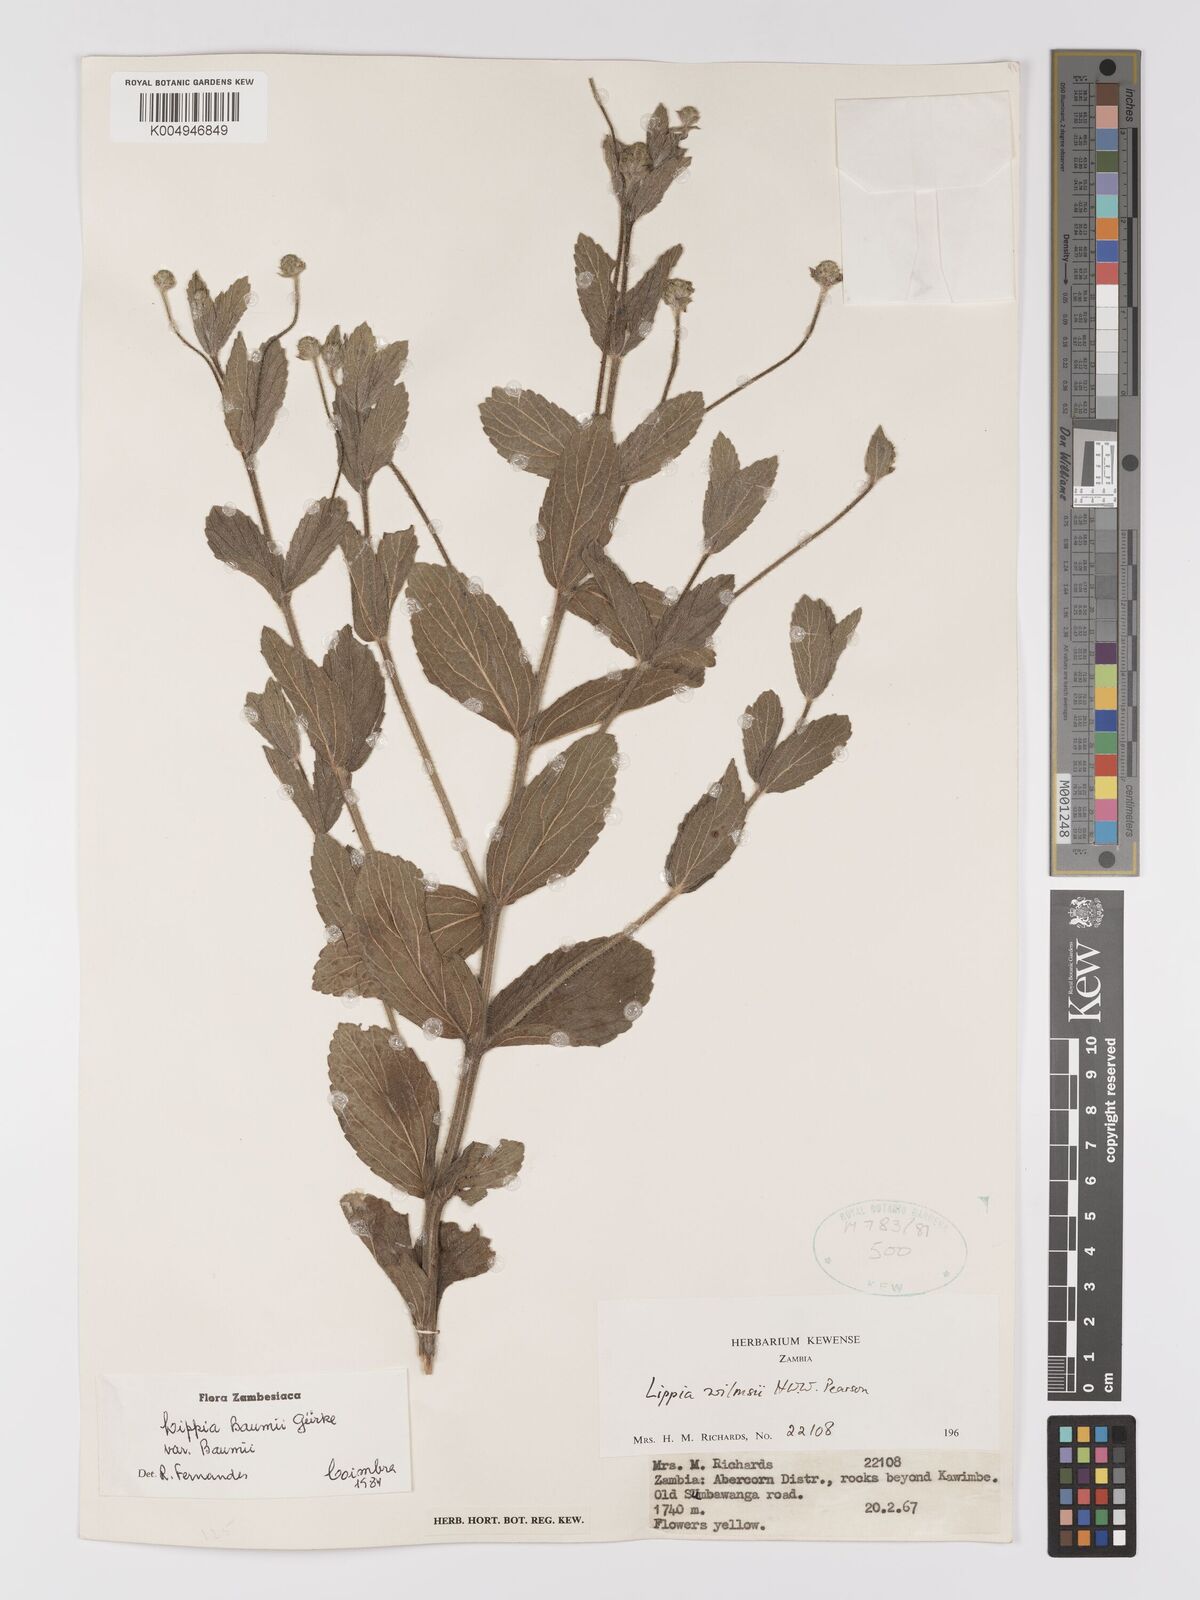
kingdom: Plantae
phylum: Tracheophyta
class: Magnoliopsida
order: Lamiales
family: Verbenaceae
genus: Lippia
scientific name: Lippia baumii
